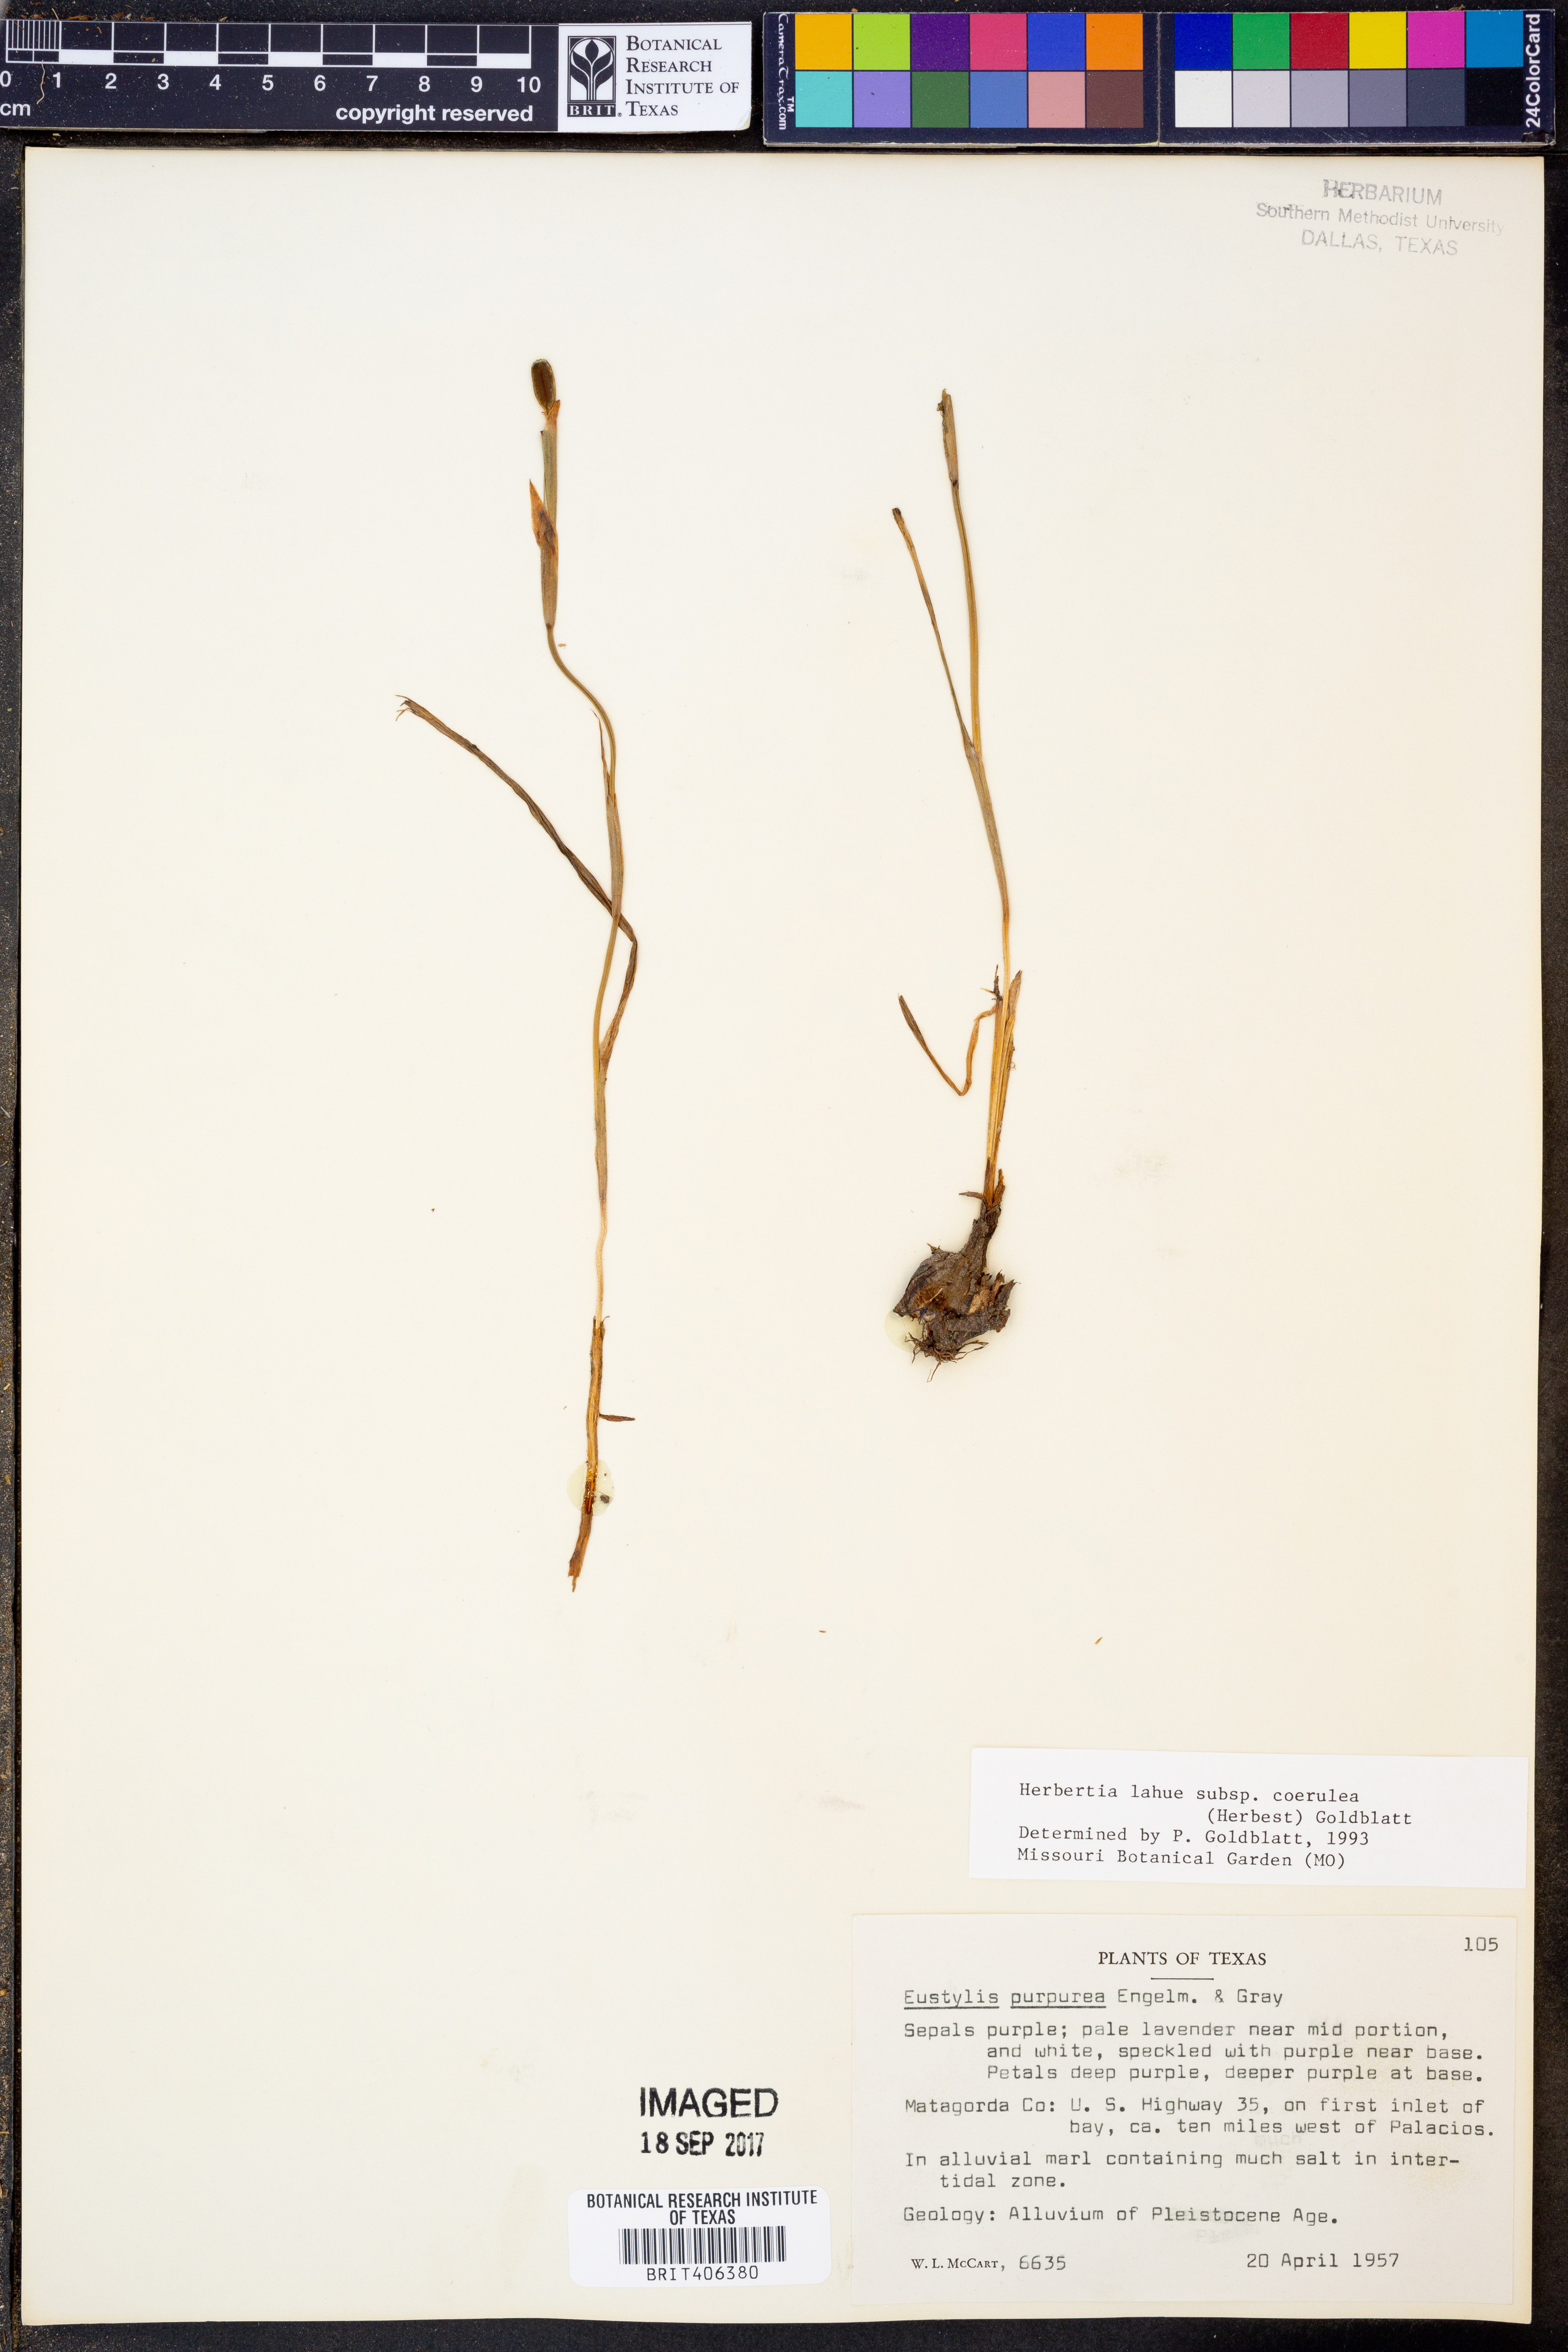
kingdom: Plantae
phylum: Tracheophyta
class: Liliopsida
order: Asparagales
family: Iridaceae
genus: Herbertia
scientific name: Herbertia lahue
